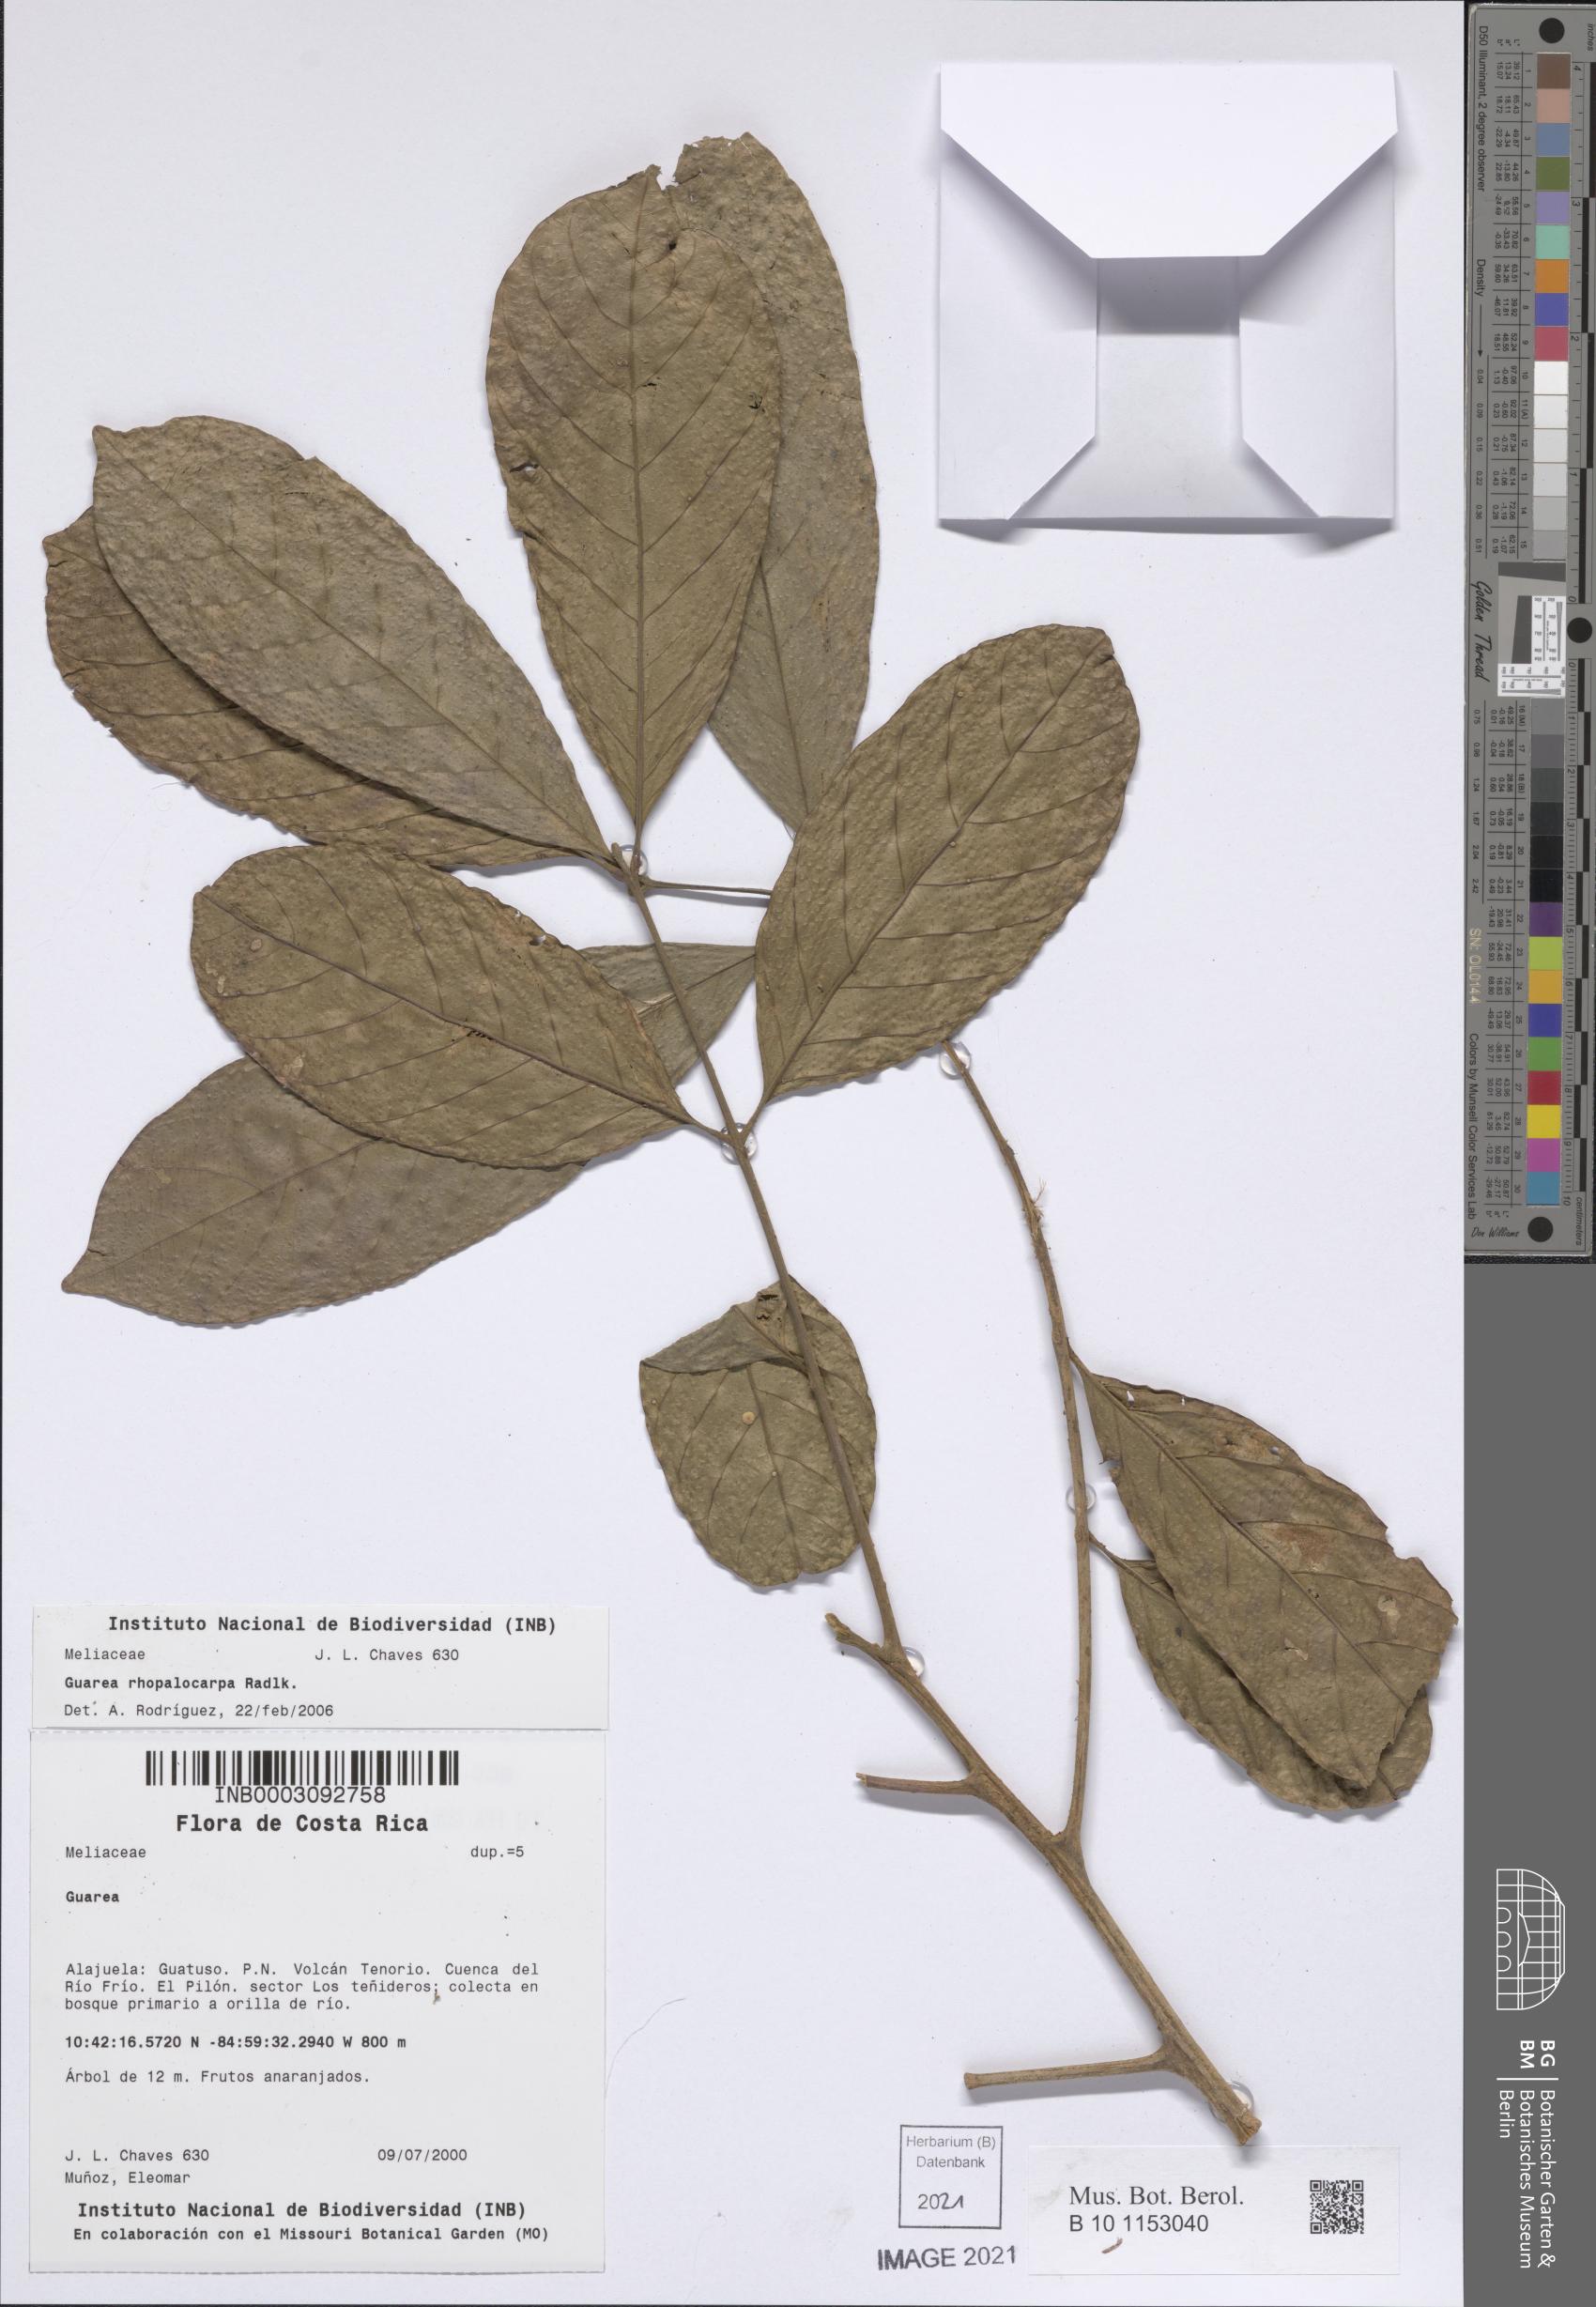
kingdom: Plantae
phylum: Tracheophyta
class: Magnoliopsida
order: Sapindales
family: Meliaceae
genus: Guarea
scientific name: Guarea rhopalocarpa
